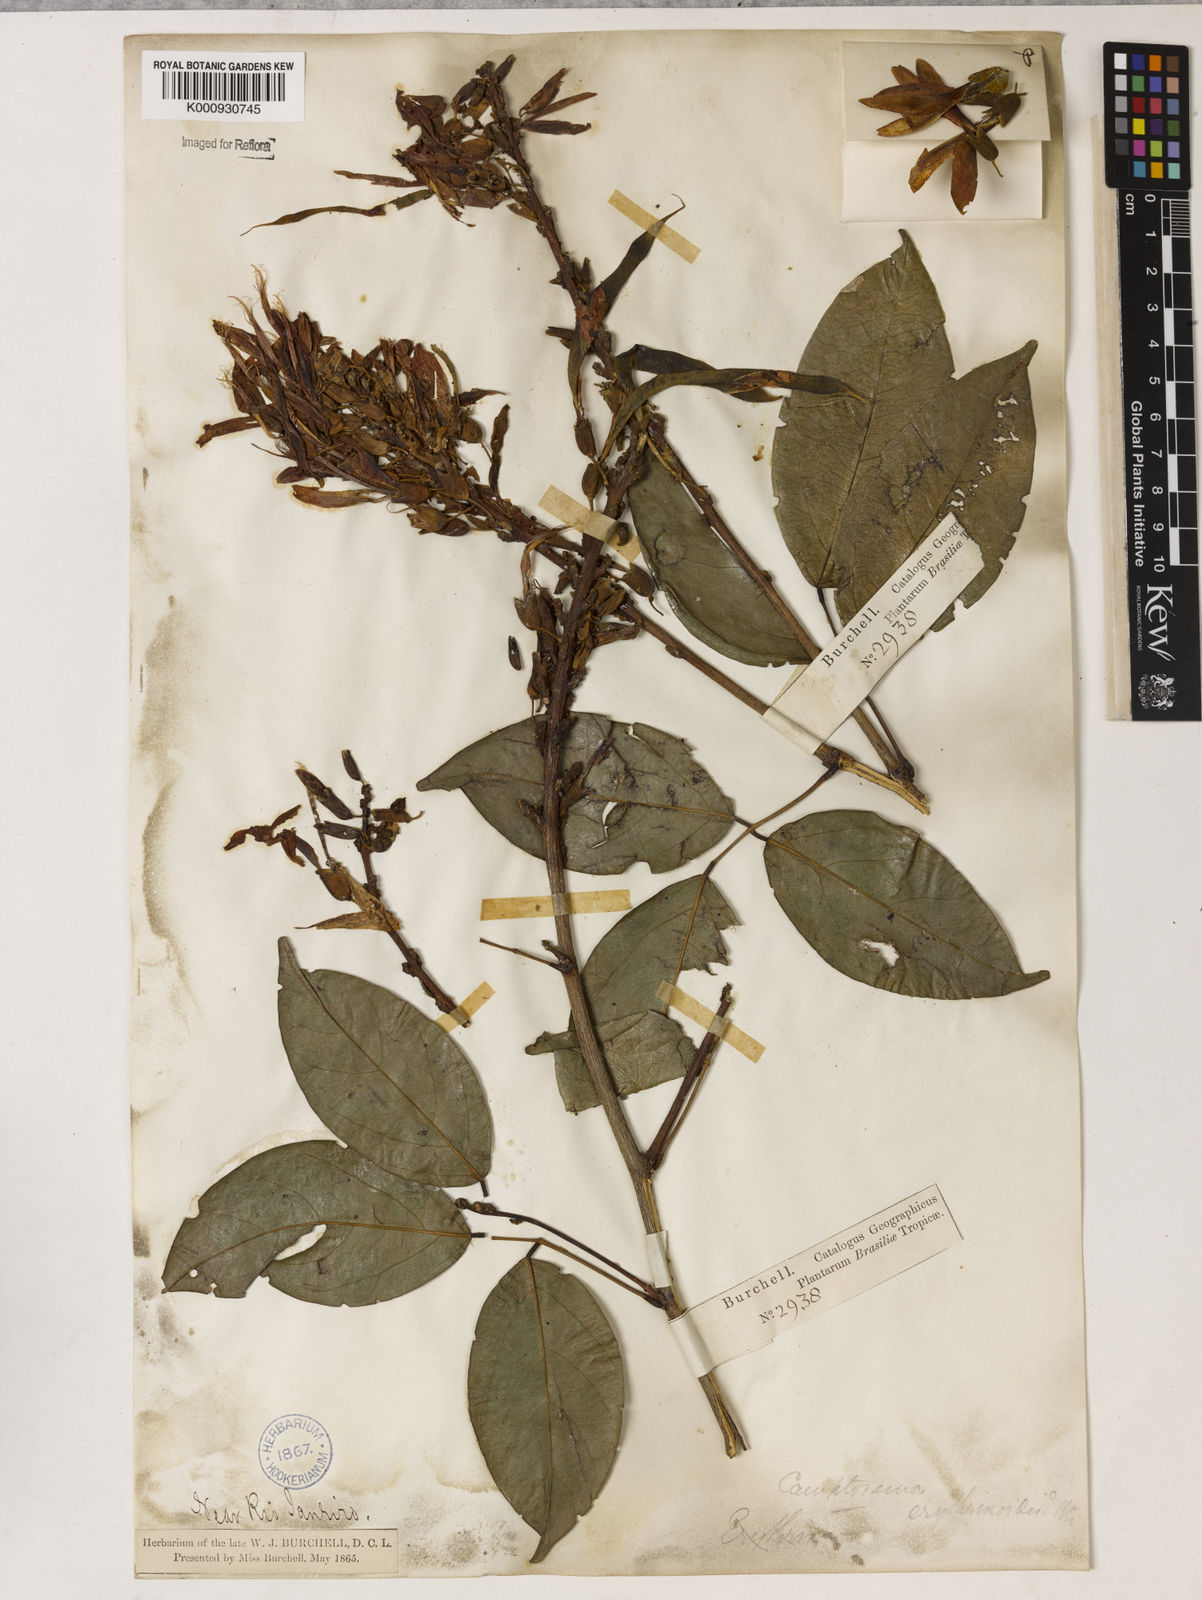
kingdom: Plantae
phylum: Tracheophyta
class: Magnoliopsida
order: Fabales
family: Fabaceae
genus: Cratylia
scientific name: Cratylia isopetala
